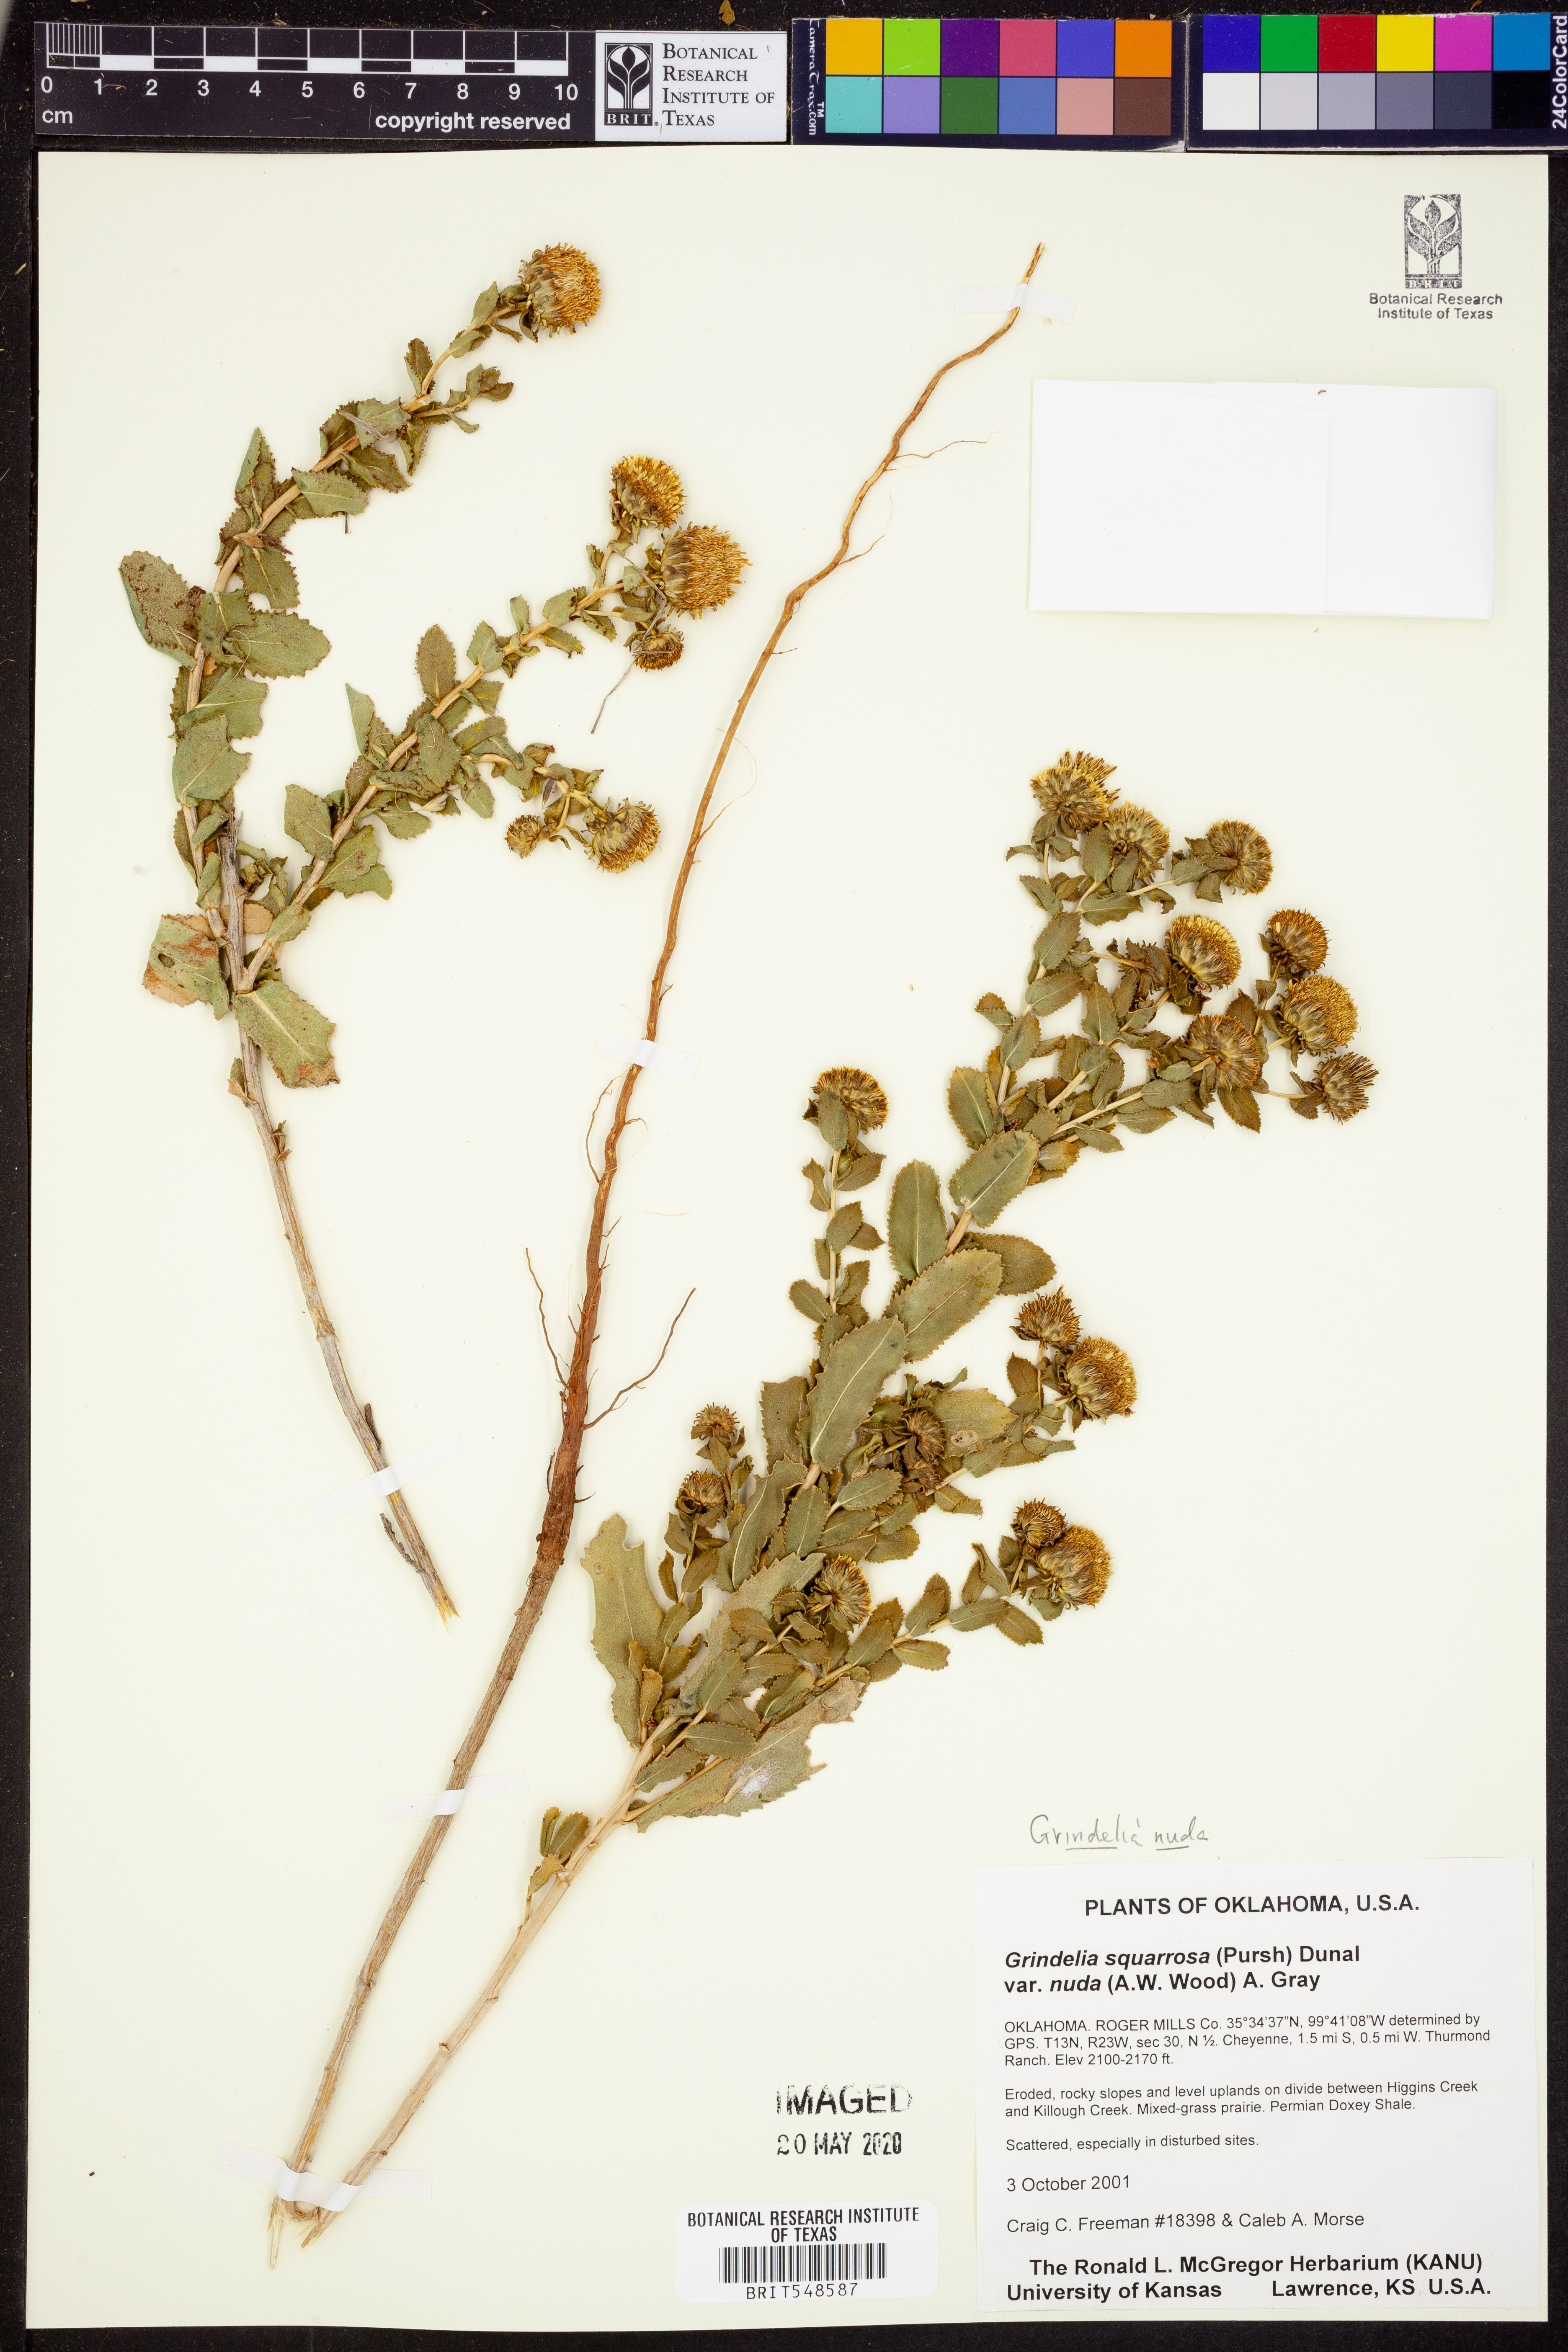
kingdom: Plantae
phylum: Tracheophyta
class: Magnoliopsida
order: Asterales
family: Asteraceae
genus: Grindelia
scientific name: Grindelia nuda
